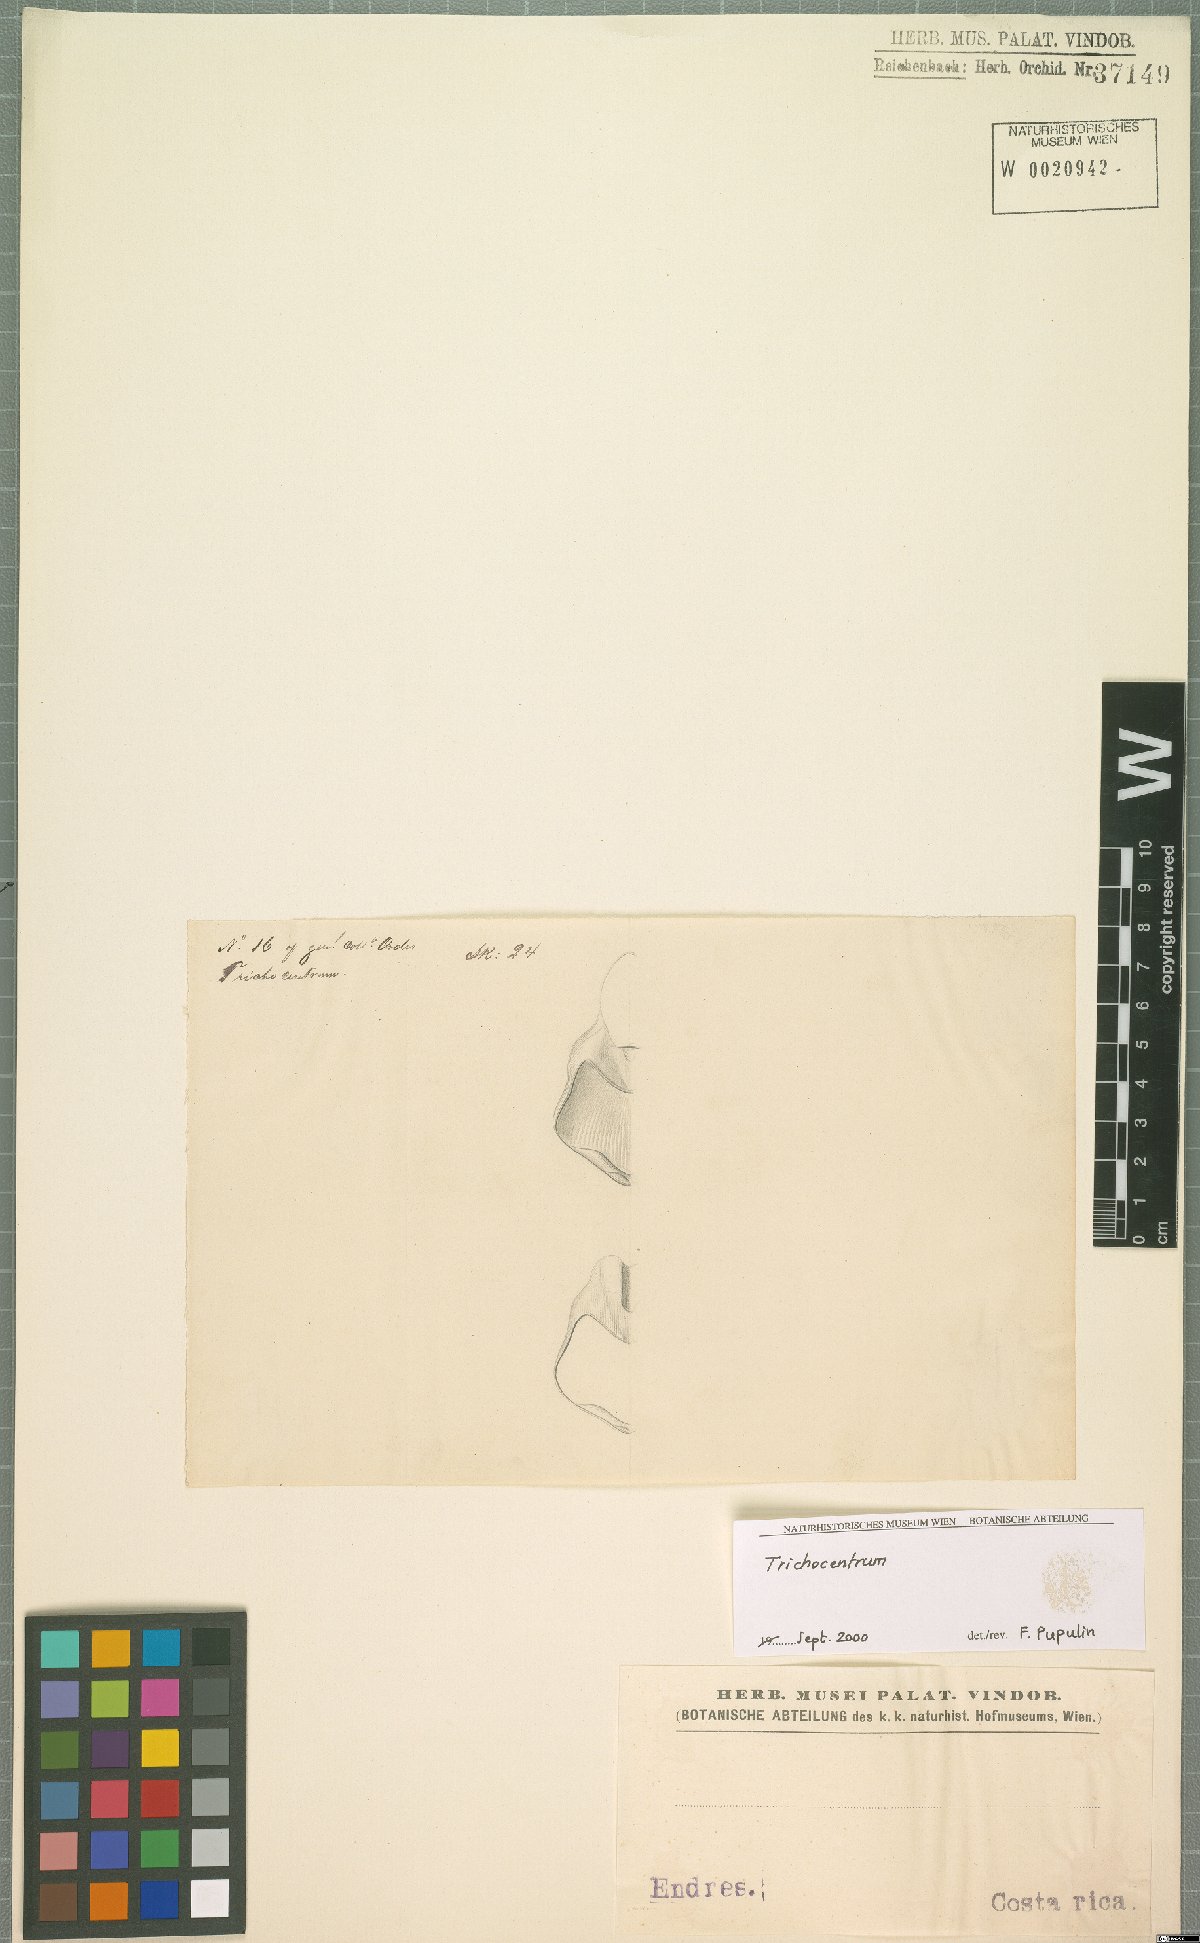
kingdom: Plantae
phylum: Tracheophyta
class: Liliopsida
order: Asparagales
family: Orchidaceae
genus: Trichocentrum
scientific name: Trichocentrum caloceras
